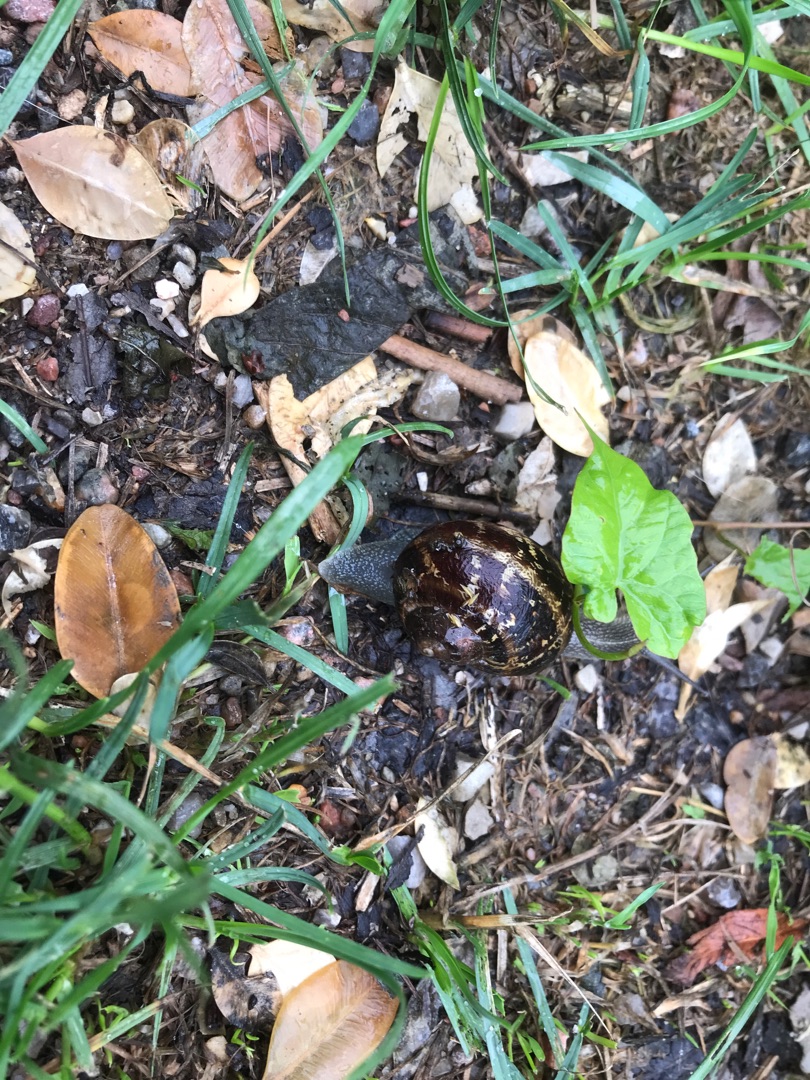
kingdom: Animalia
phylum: Mollusca
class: Gastropoda
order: Stylommatophora
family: Helicidae
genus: Cornu
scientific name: Cornu aspersum
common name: Plettet voldsnegl
